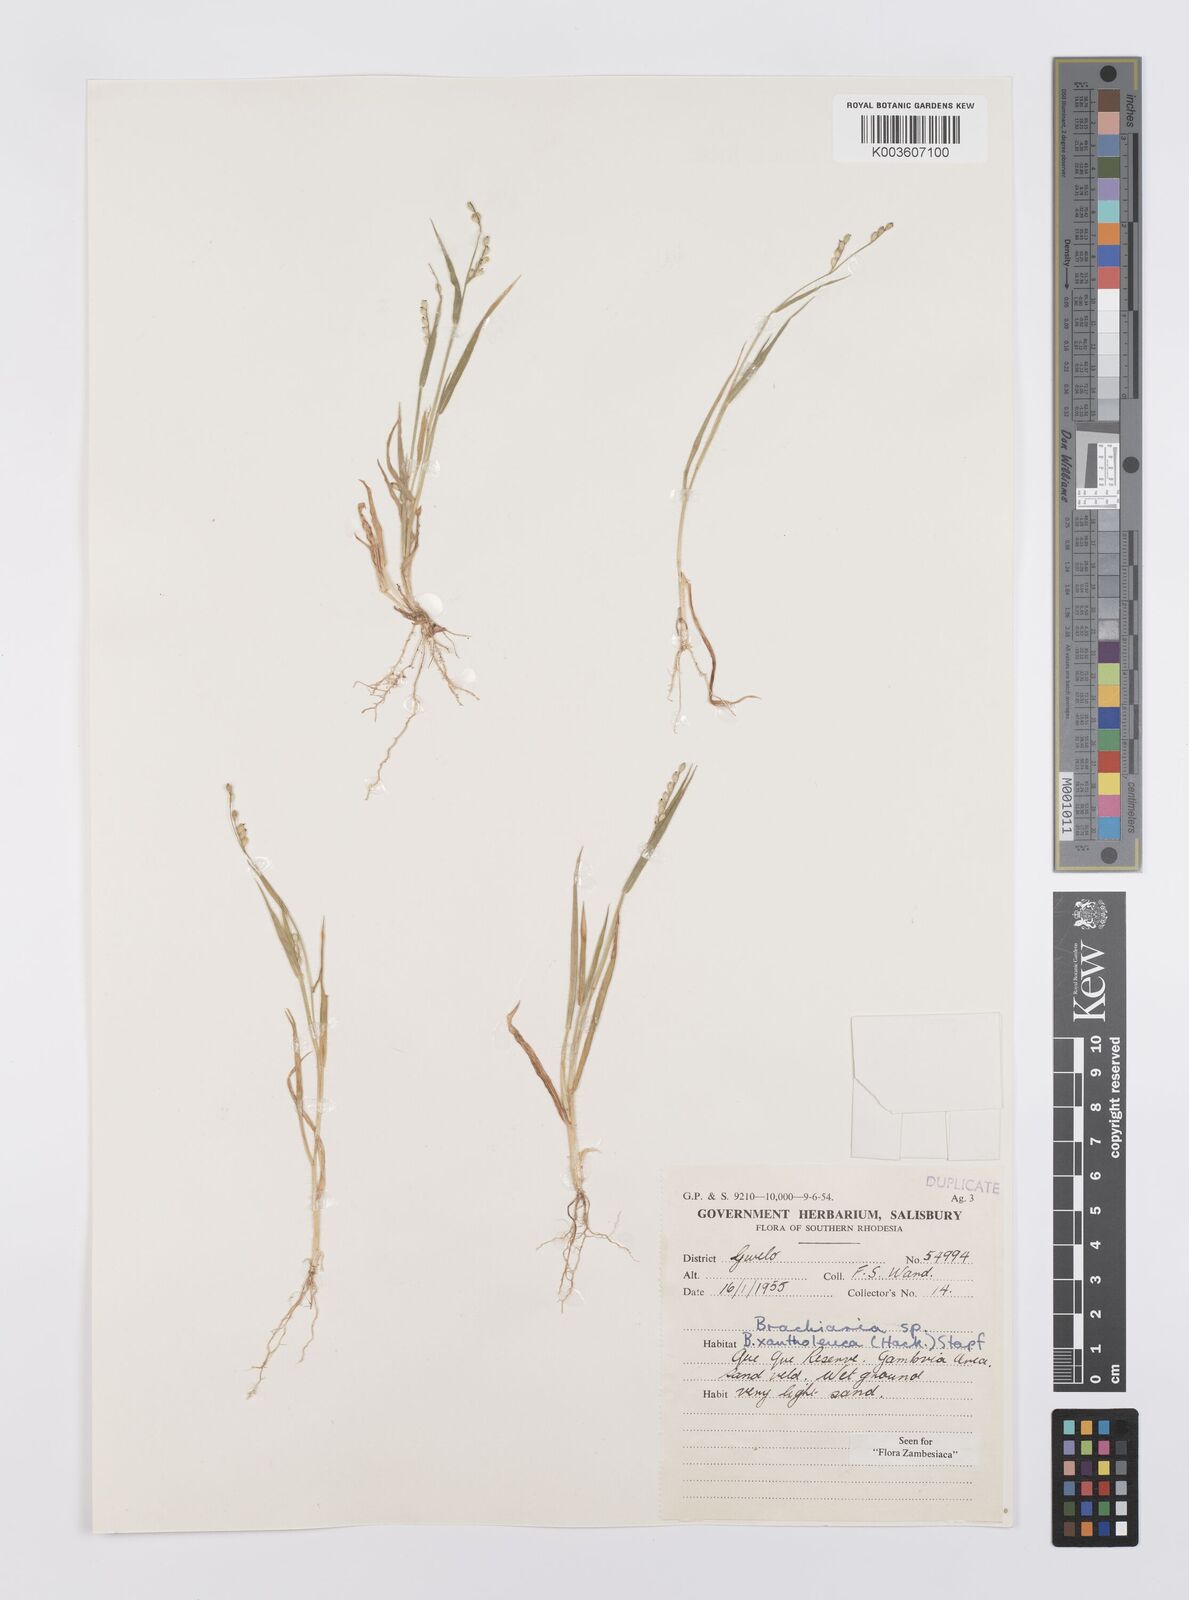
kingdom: Plantae
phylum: Tracheophyta
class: Liliopsida
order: Poales
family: Poaceae
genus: Urochloa
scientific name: Urochloa xantholeuca
